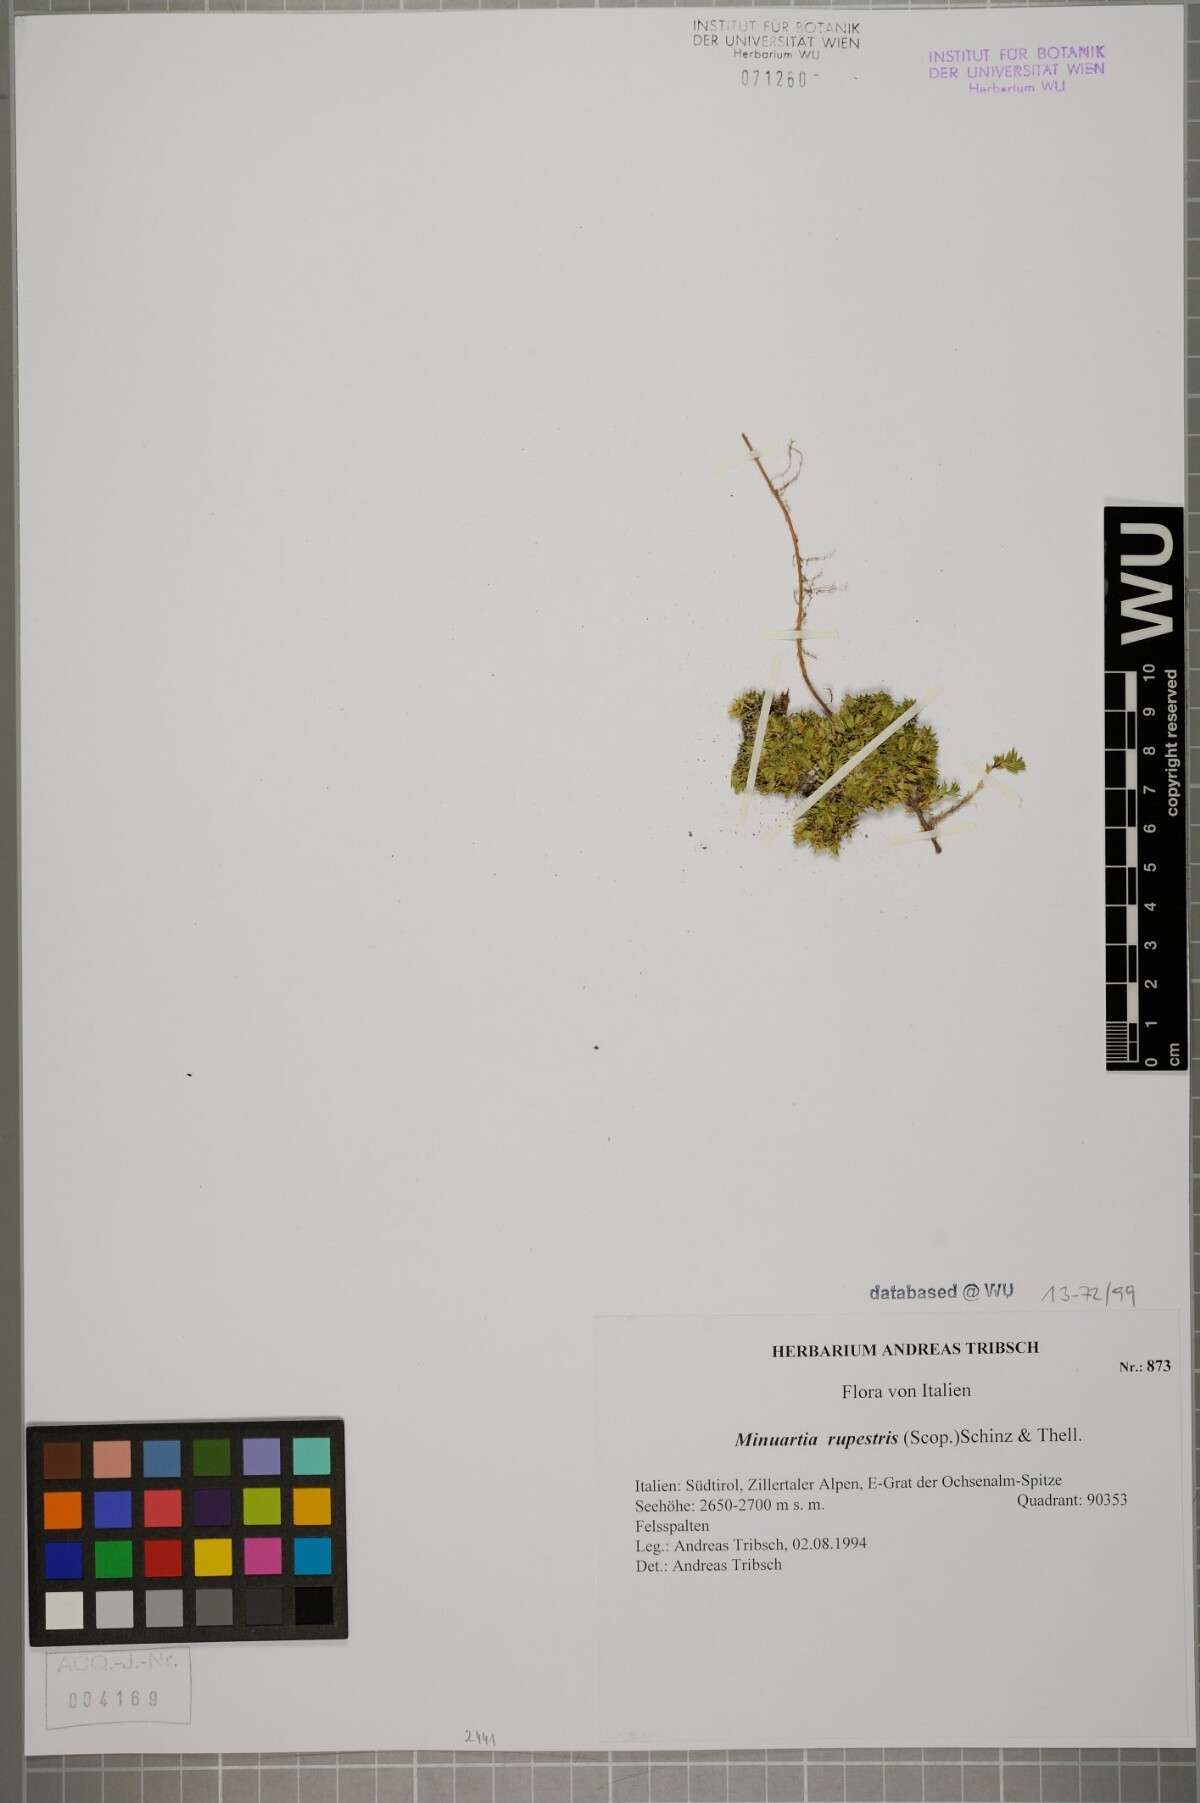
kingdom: Plantae
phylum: Tracheophyta
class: Magnoliopsida
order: Caryophyllales
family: Caryophyllaceae
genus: Facchinia
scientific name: Facchinia rupestris
